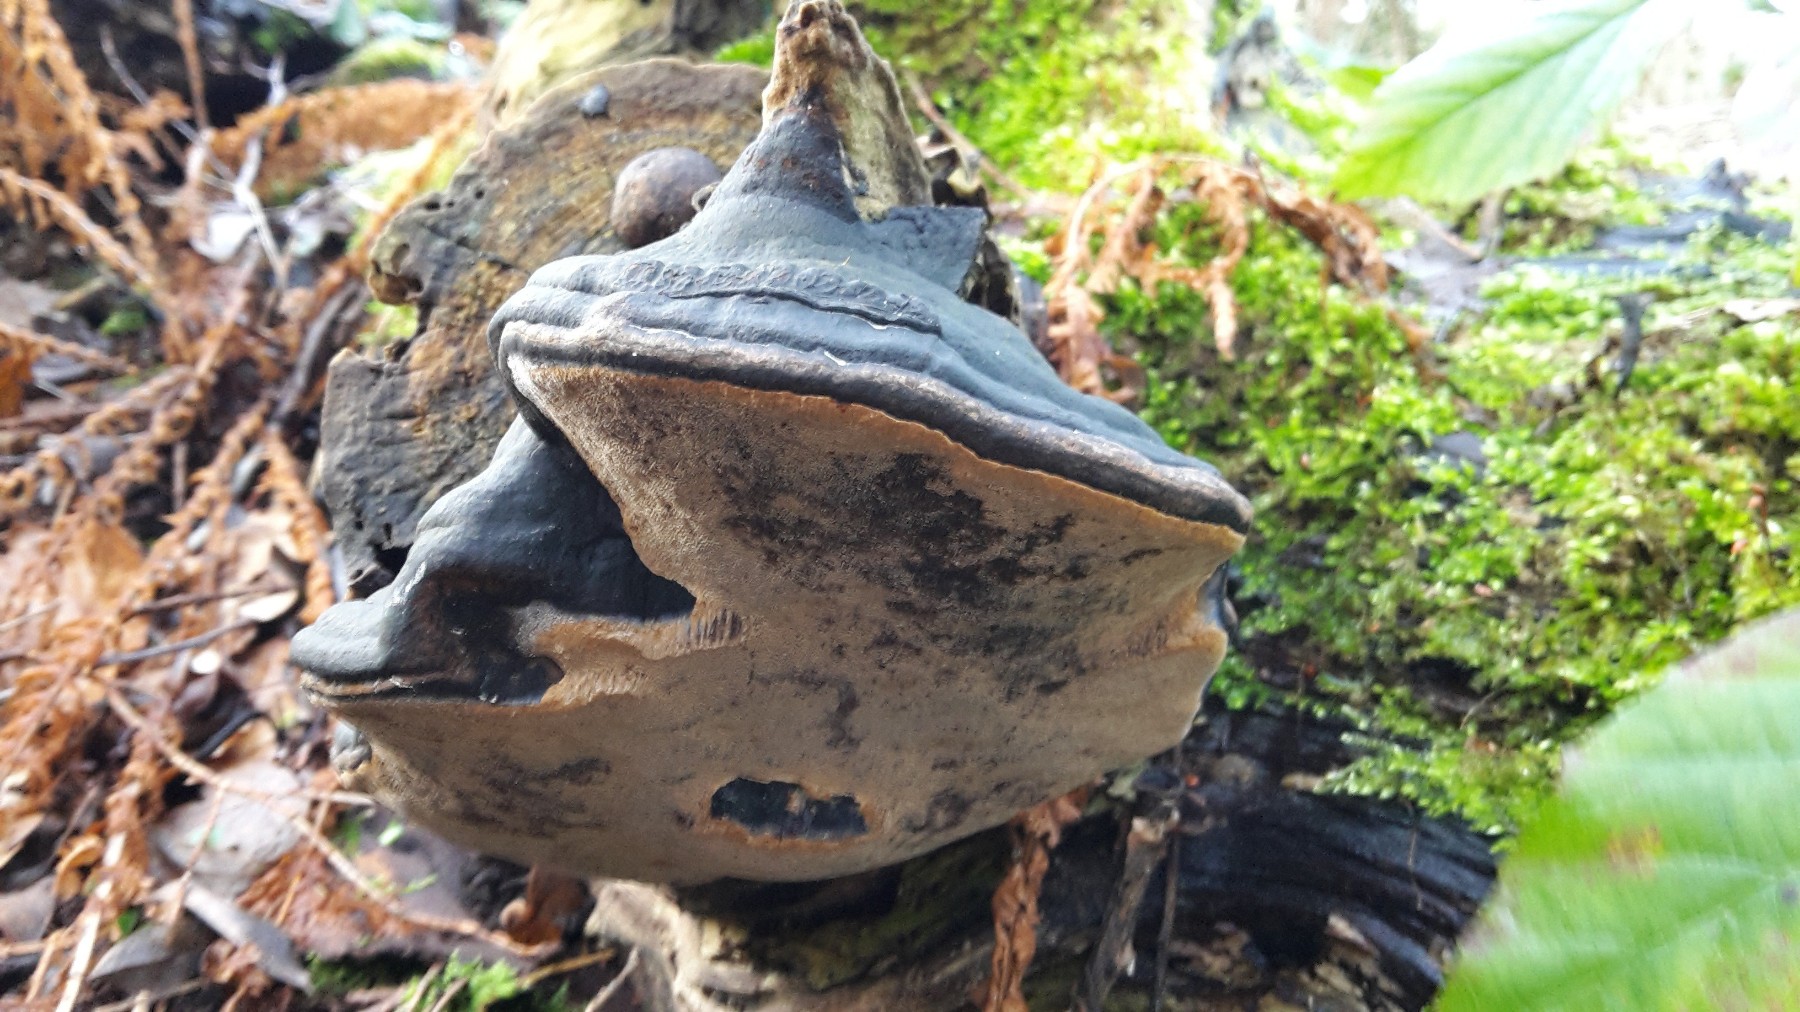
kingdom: Fungi
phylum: Basidiomycota
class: Agaricomycetes
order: Hymenochaetales
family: Hymenochaetaceae
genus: Phellinus
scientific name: Phellinus igniarius
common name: almindelig ildporesvamp
